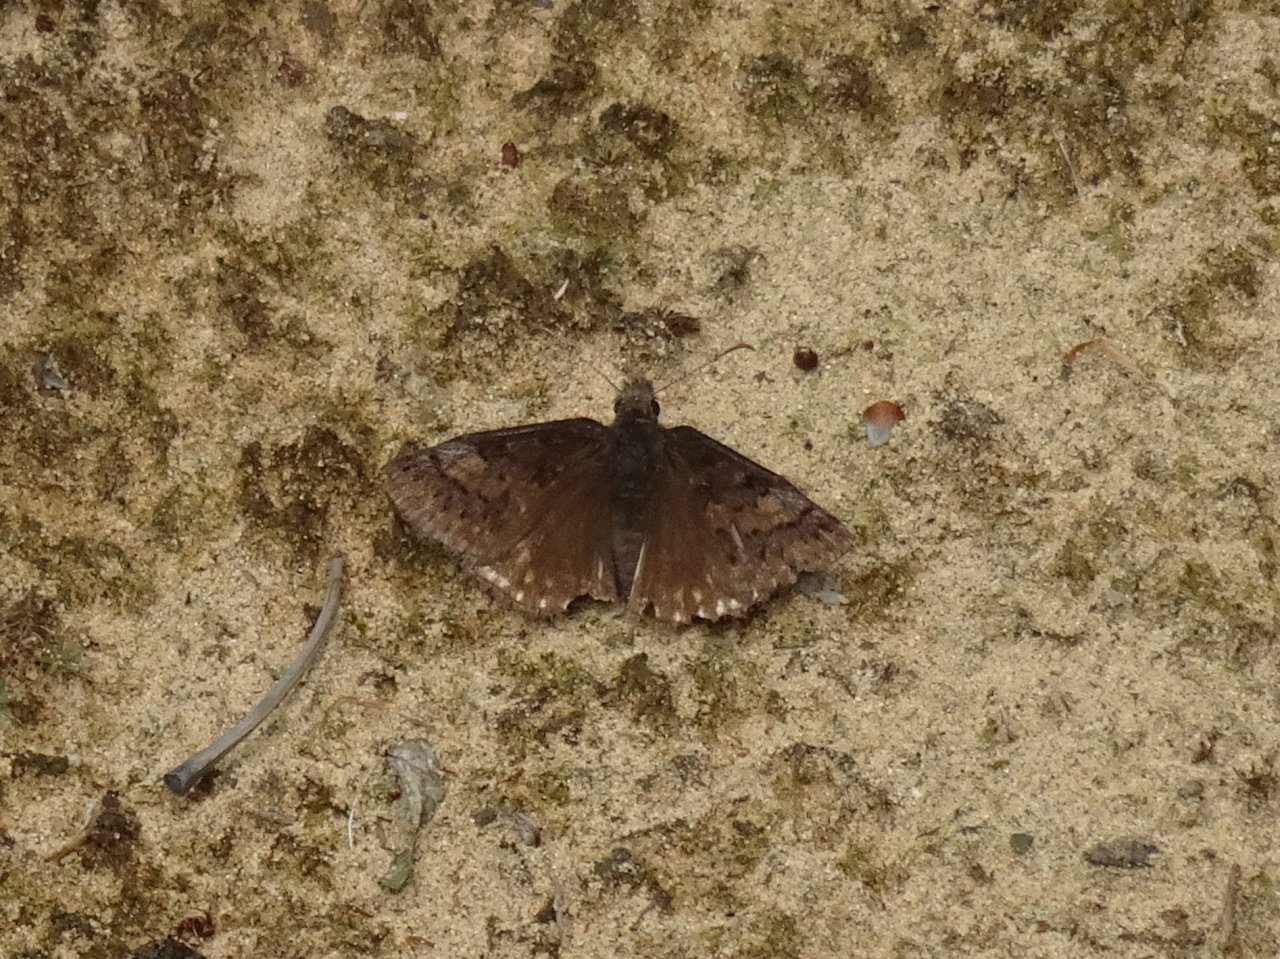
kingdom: Animalia
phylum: Arthropoda
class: Insecta
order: Lepidoptera
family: Hesperiidae
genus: Erynnis
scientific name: Erynnis brizo
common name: Sleepy Duskywing
